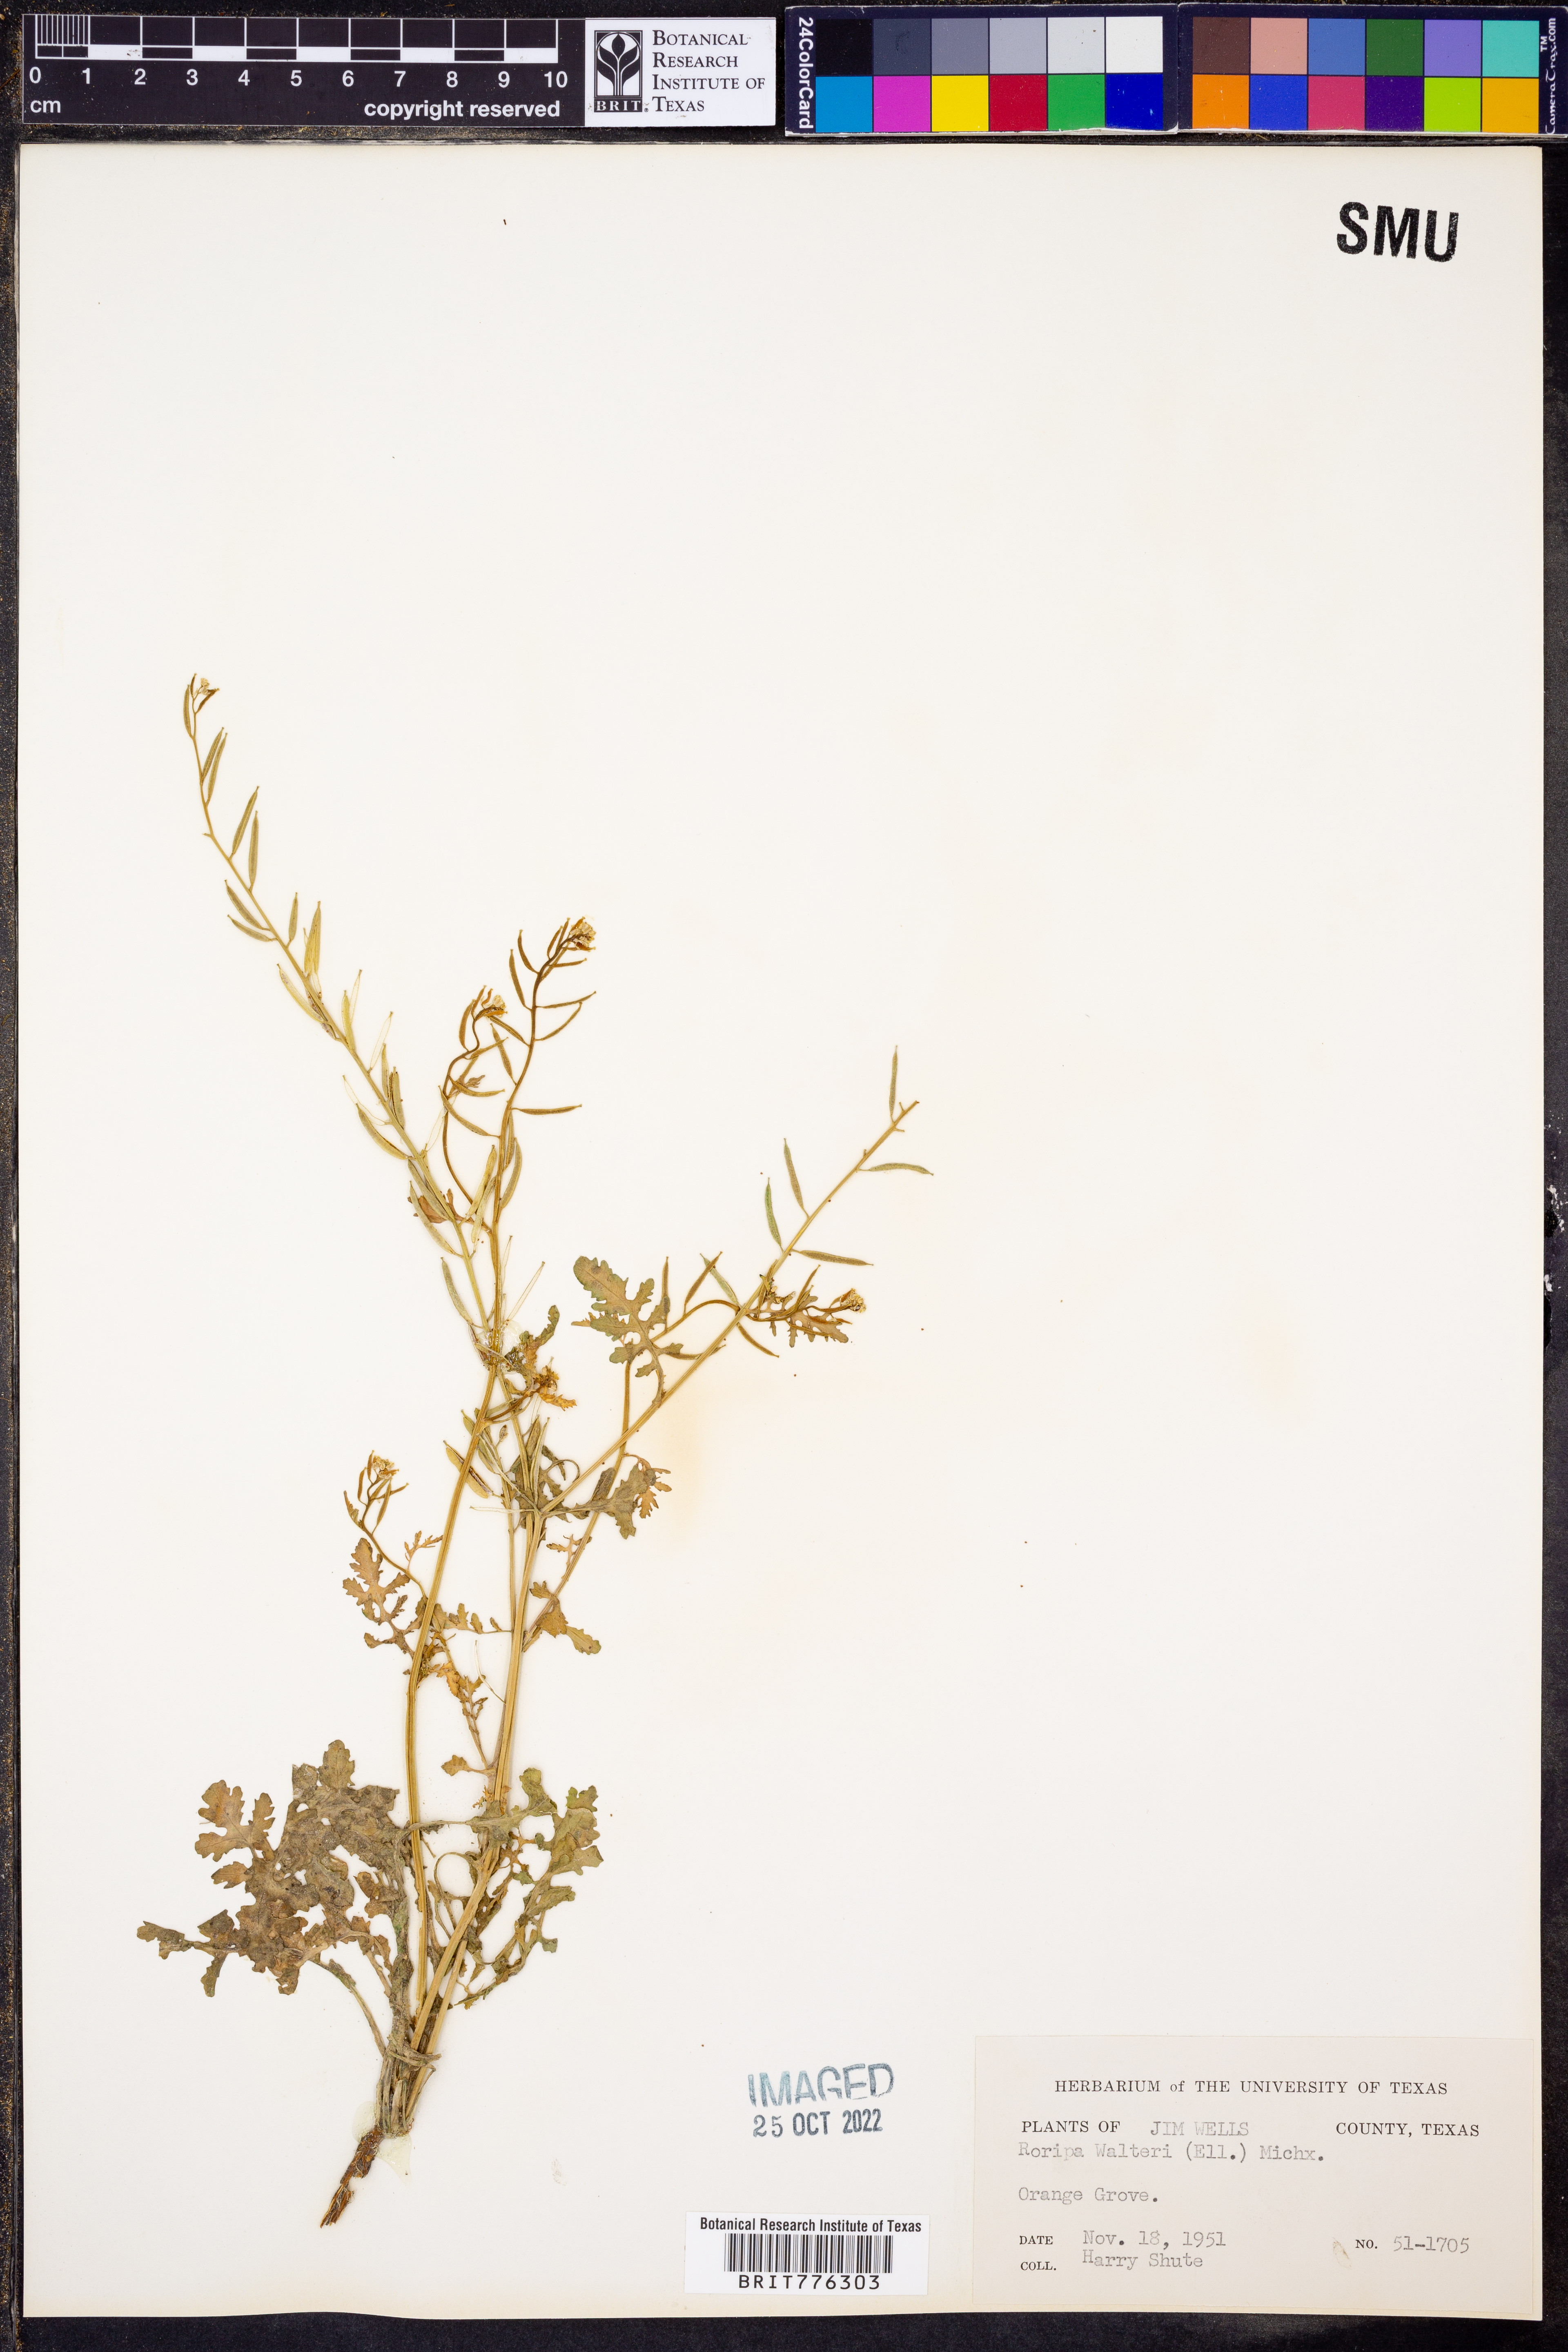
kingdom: Plantae
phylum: Tracheophyta
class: Magnoliopsida
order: Brassicales
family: Brassicaceae
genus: Rorippa
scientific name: Rorippa teres
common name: Southern marsh yellowcress
